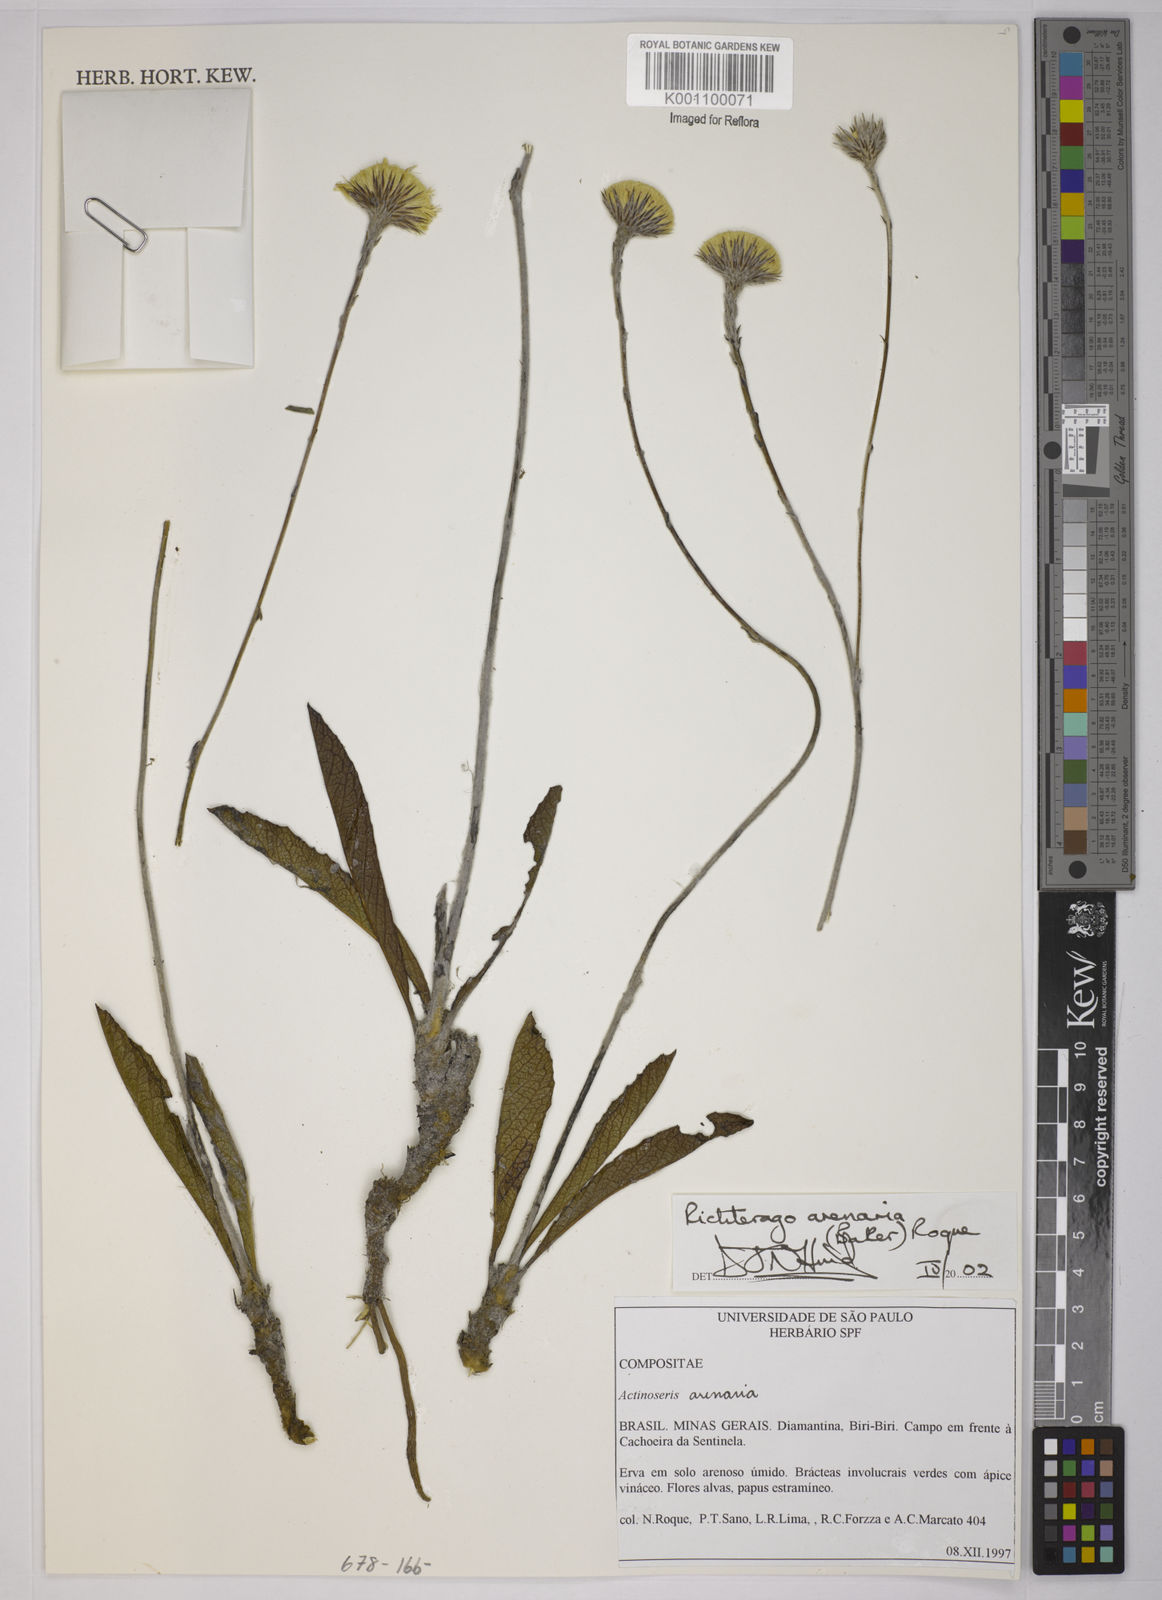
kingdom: Plantae
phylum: Tracheophyta
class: Magnoliopsida
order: Asterales
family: Asteraceae
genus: Richterago
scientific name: Richterago arenaria
